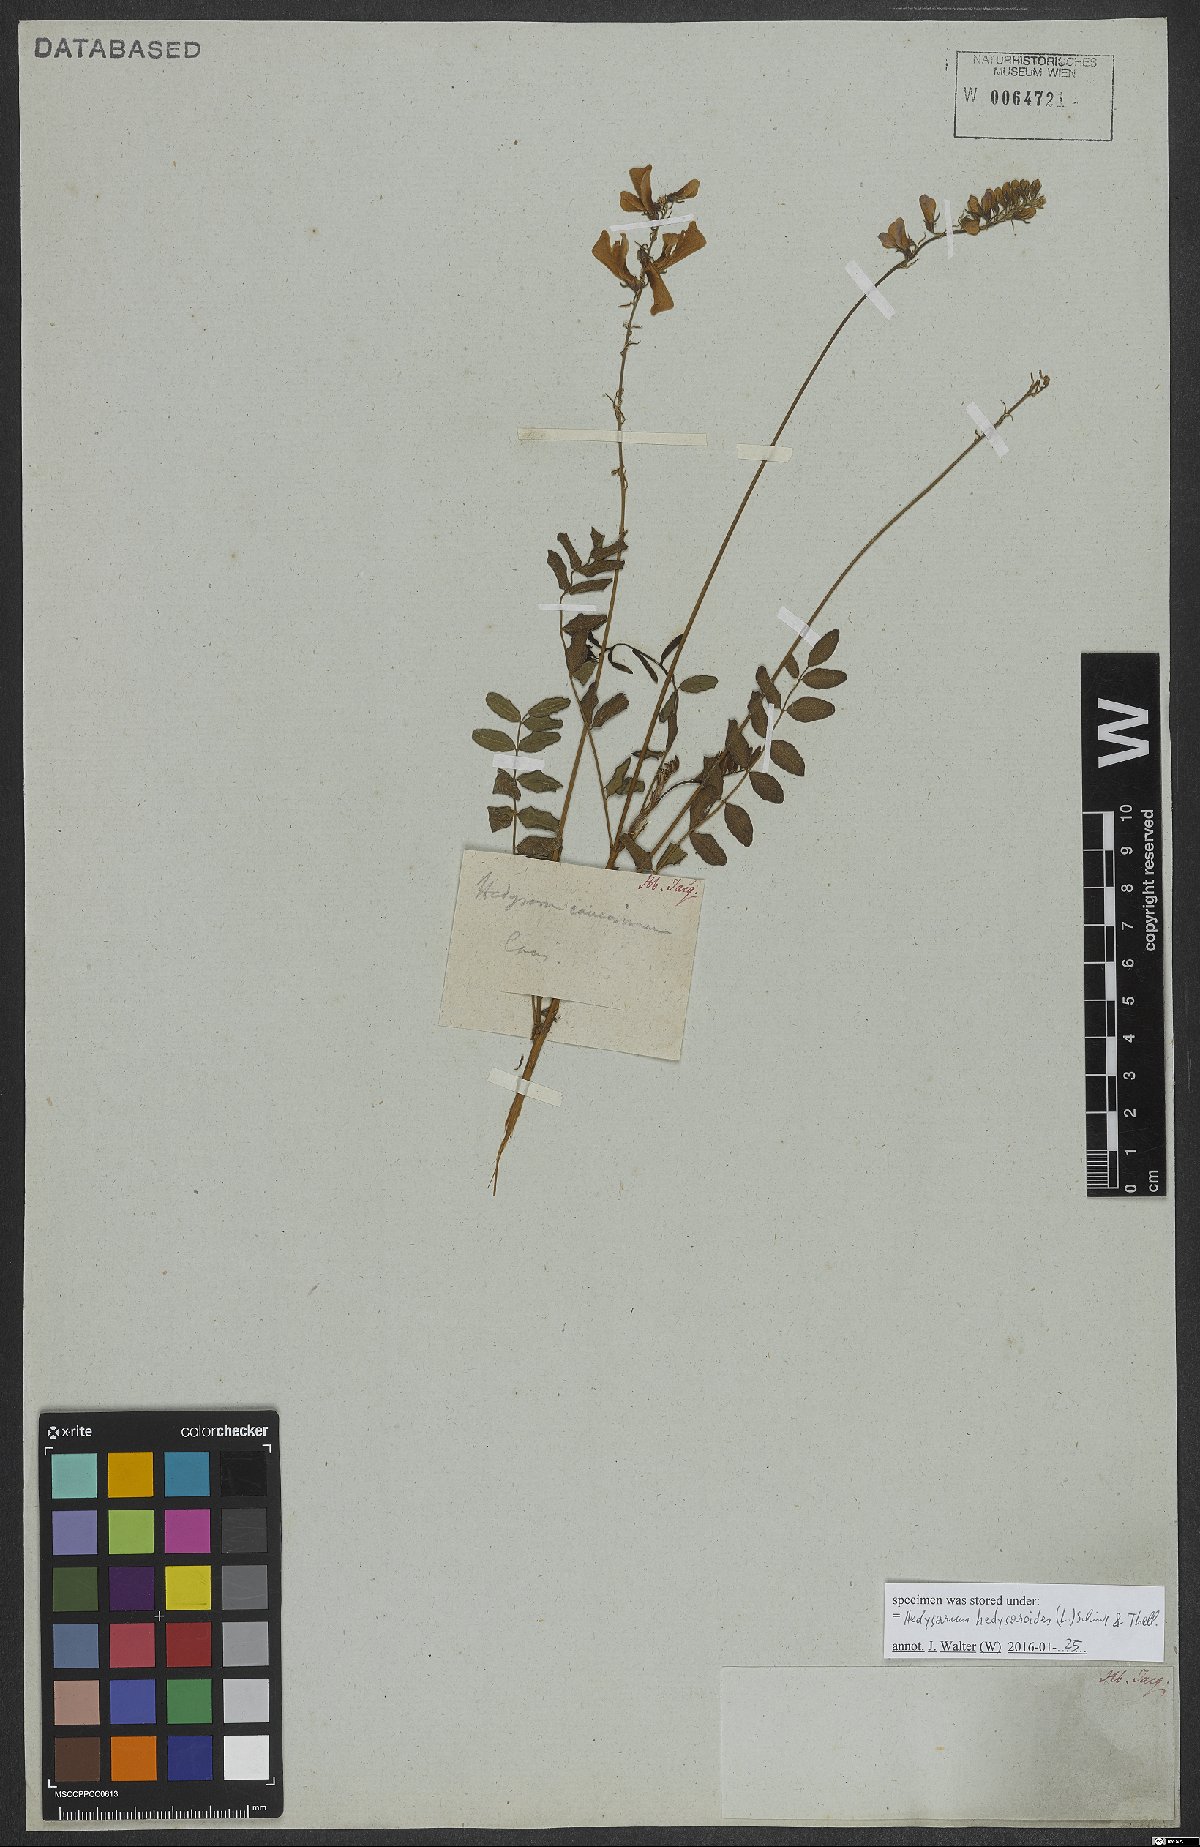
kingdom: Plantae
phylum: Tracheophyta
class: Magnoliopsida
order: Fabales
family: Fabaceae
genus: Hedysarum
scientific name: Hedysarum hedysaroides
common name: Alpine french-honeysuckle
